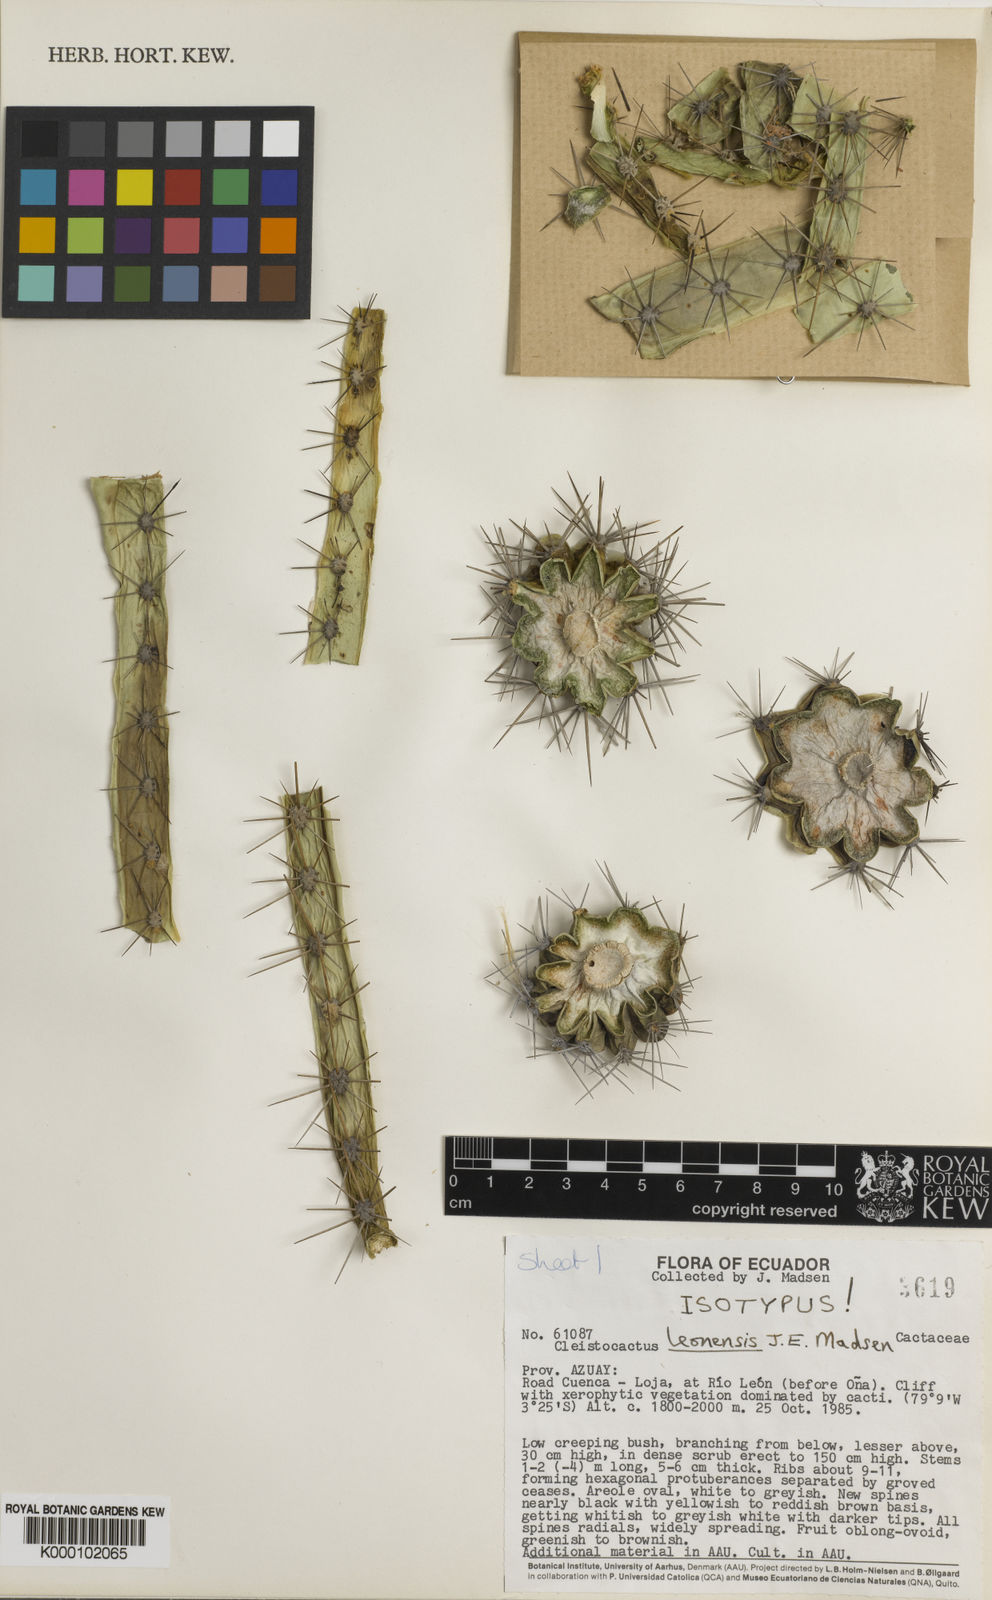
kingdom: Plantae
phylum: Tracheophyta
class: Magnoliopsida
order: Caryophyllales
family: Cactaceae
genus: Borzicactus
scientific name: Borzicactus leonensis
